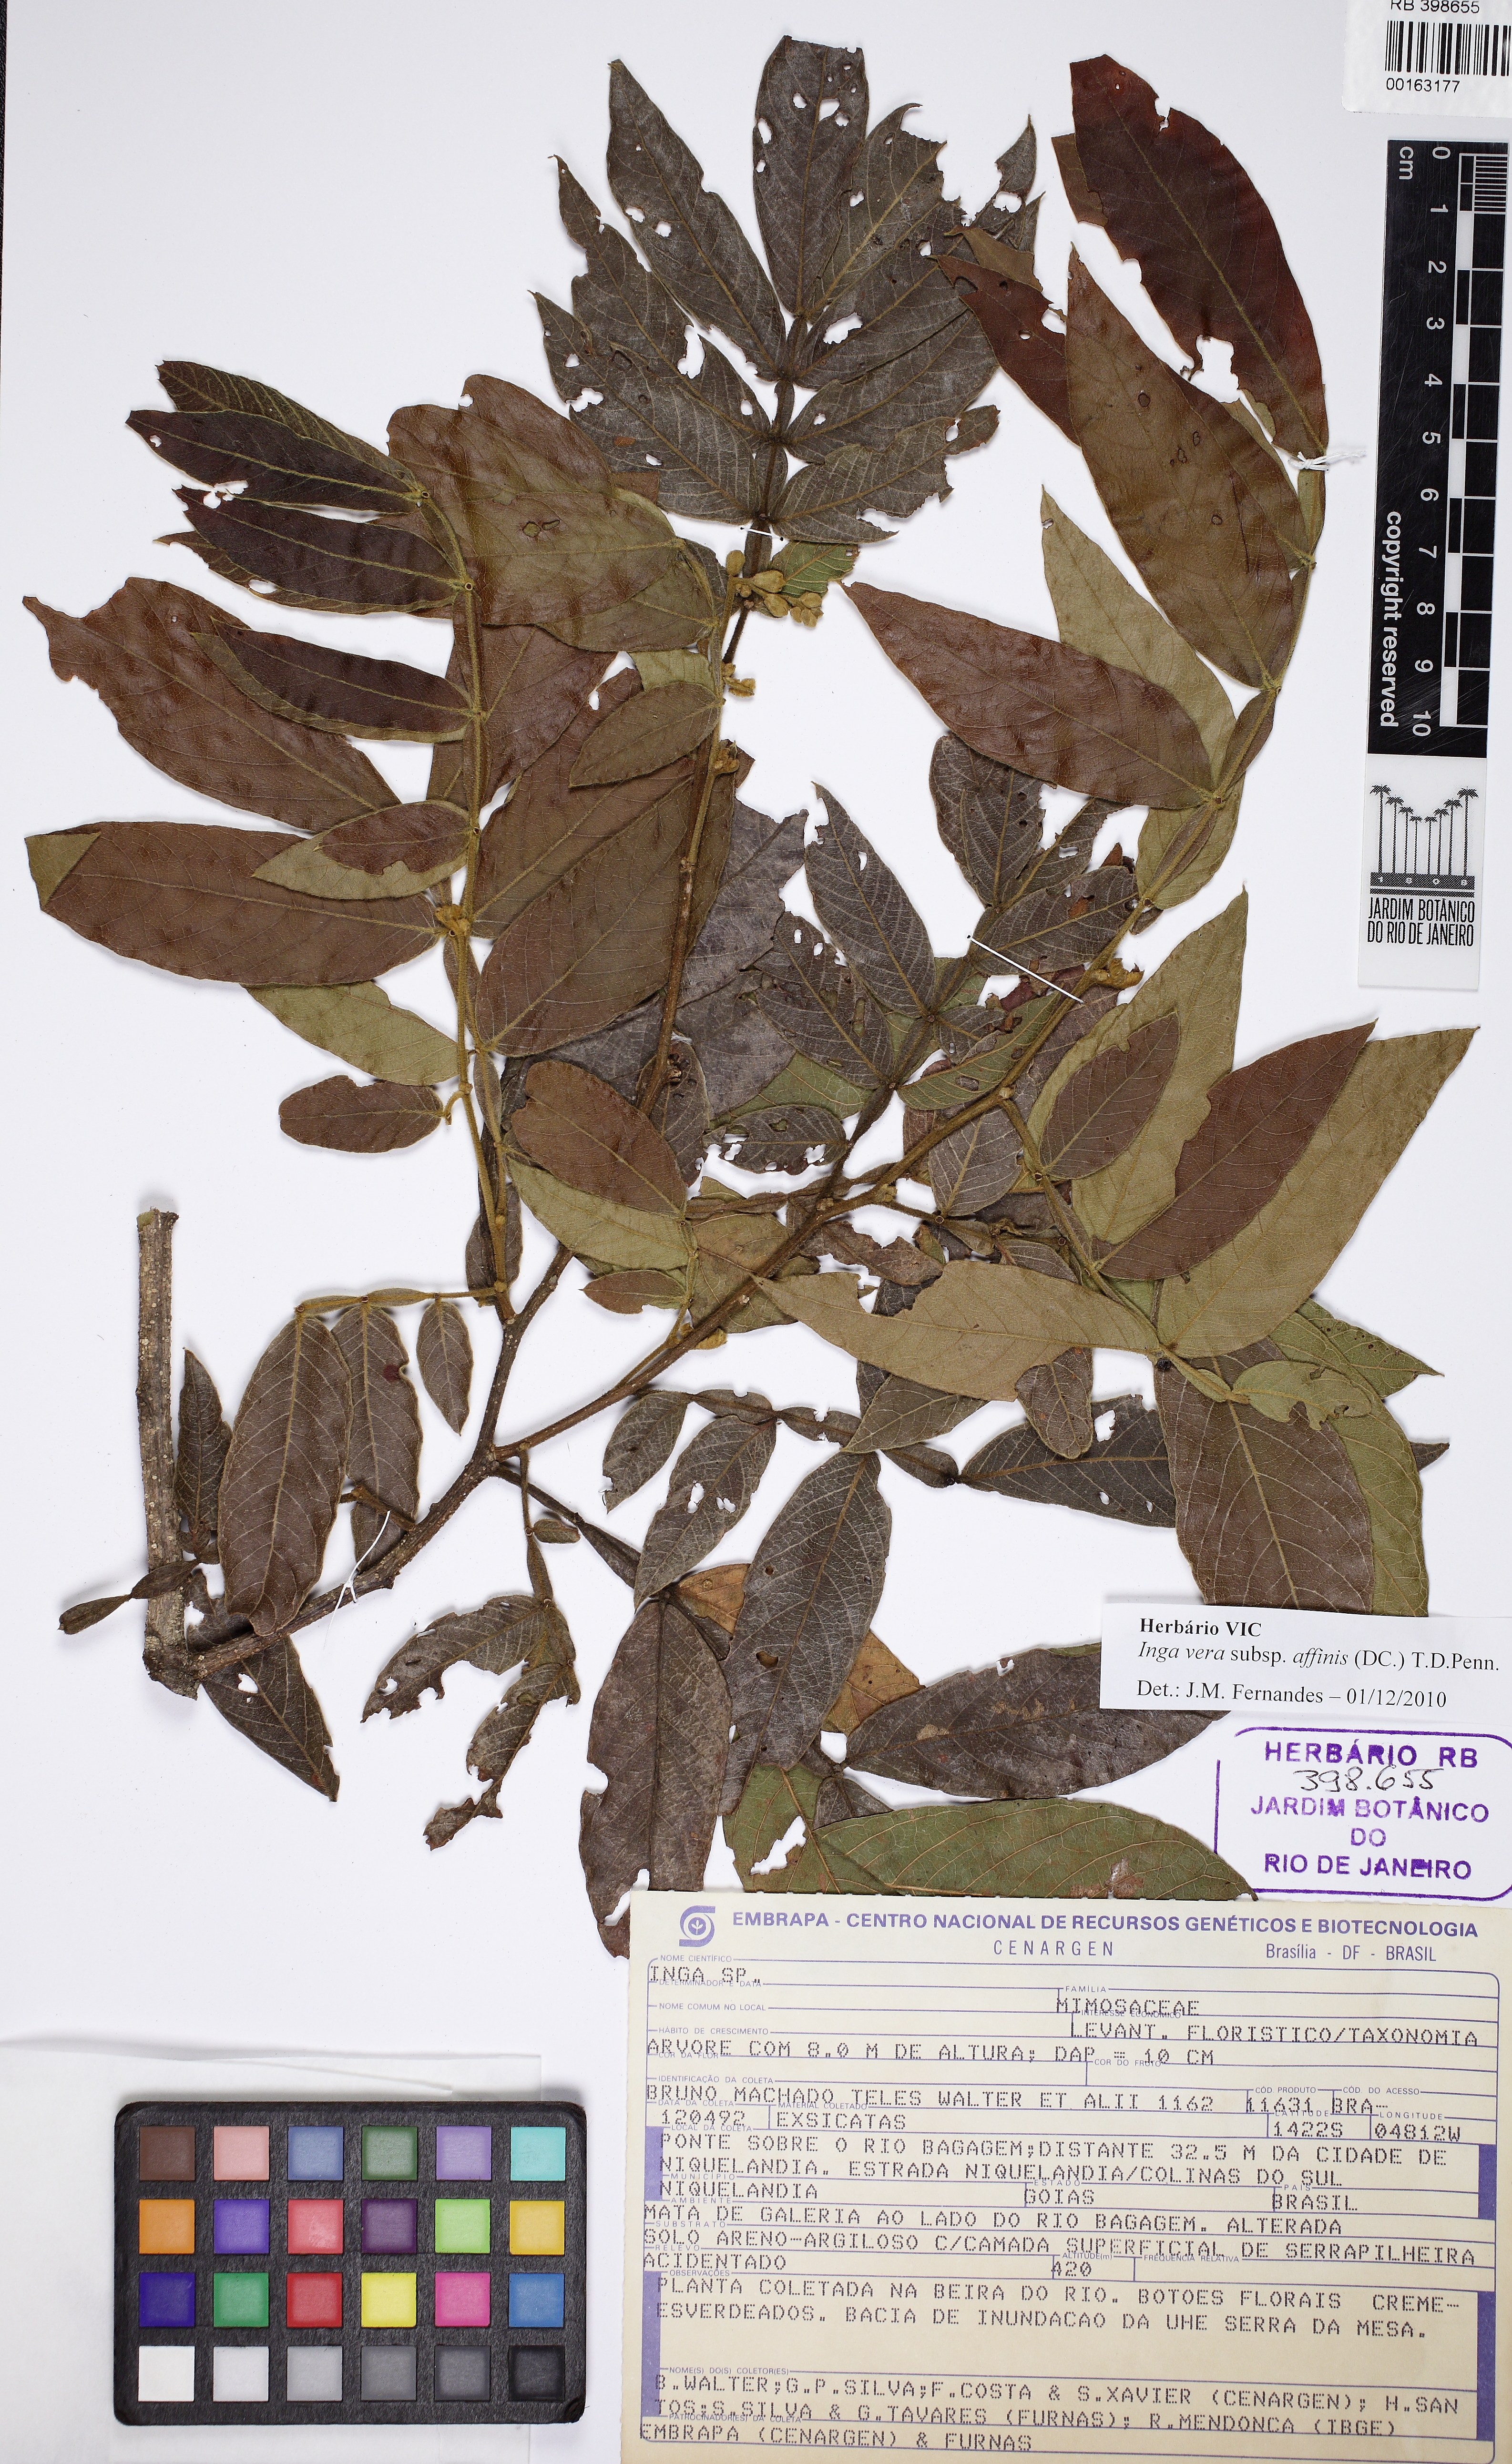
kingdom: Plantae
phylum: Tracheophyta
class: Magnoliopsida
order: Fabales
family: Fabaceae
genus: Inga
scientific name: Inga affinis
